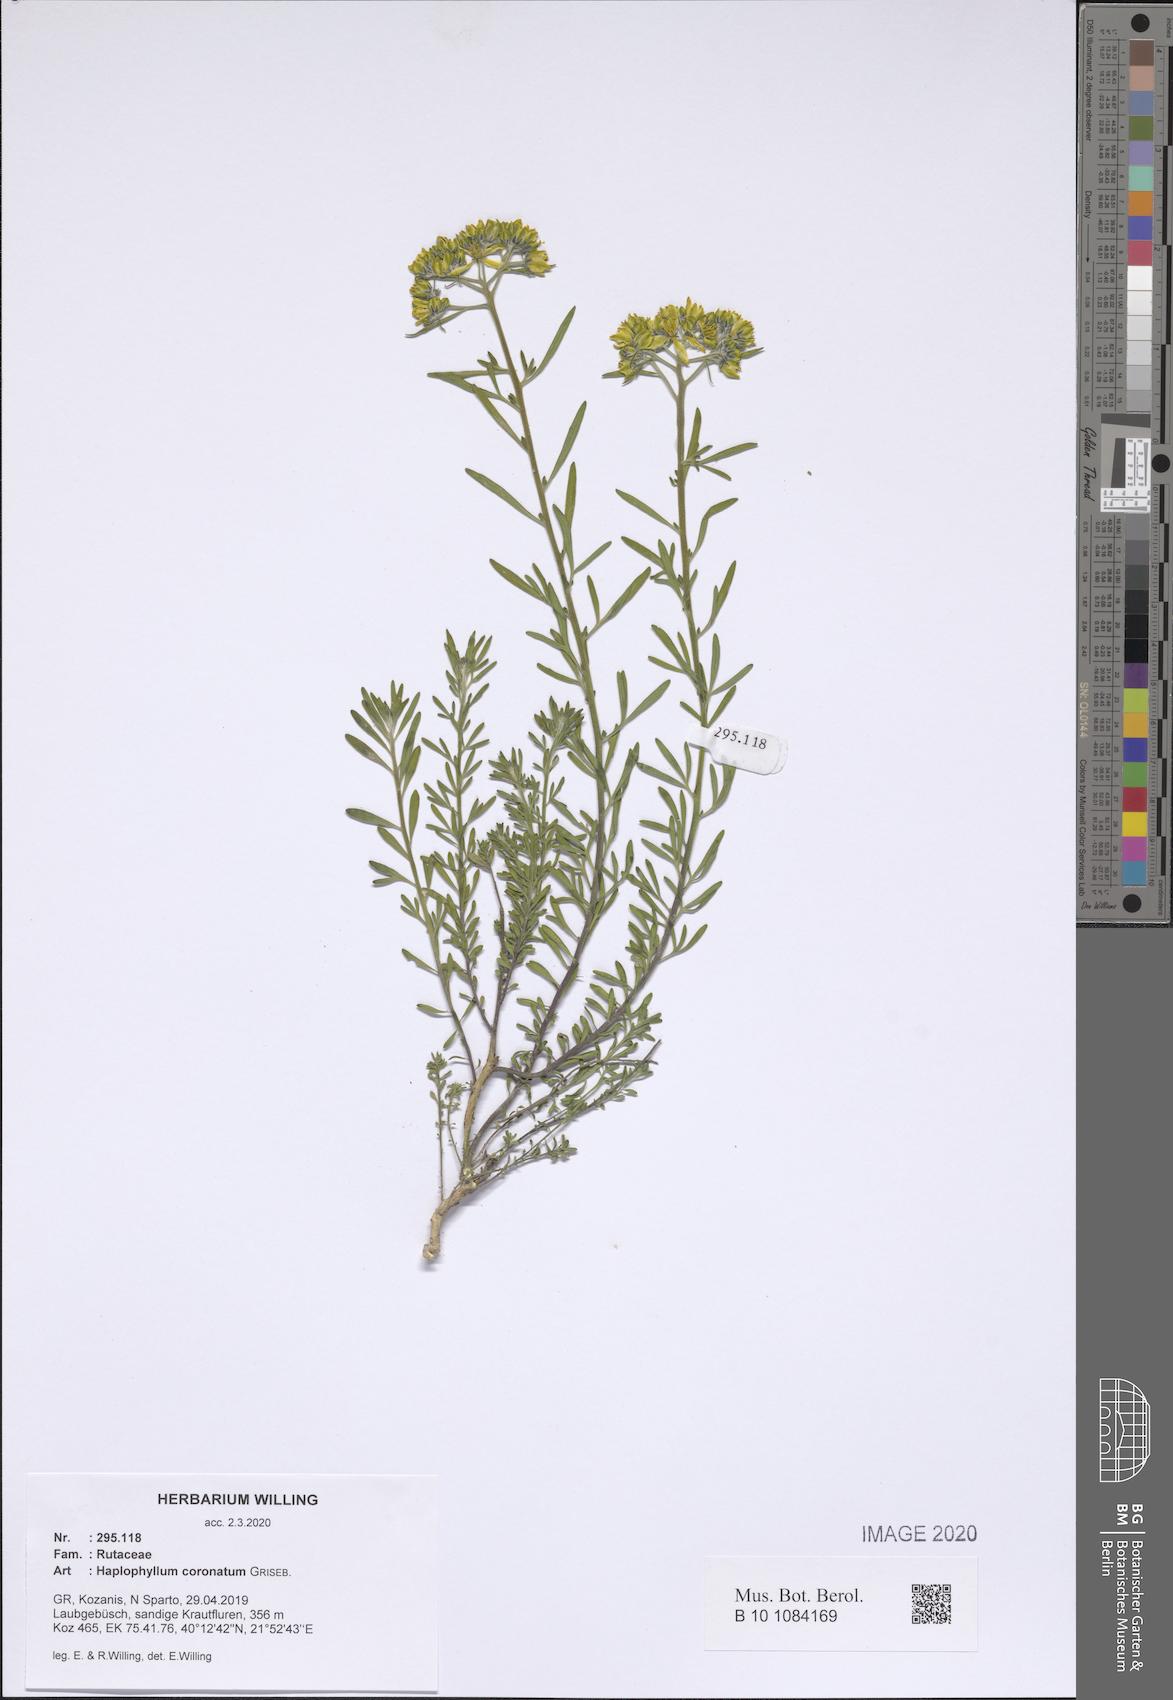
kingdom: Plantae
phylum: Tracheophyta
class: Magnoliopsida
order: Sapindales
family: Rutaceae
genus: Haplophyllum
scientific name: Haplophyllum coronatum
